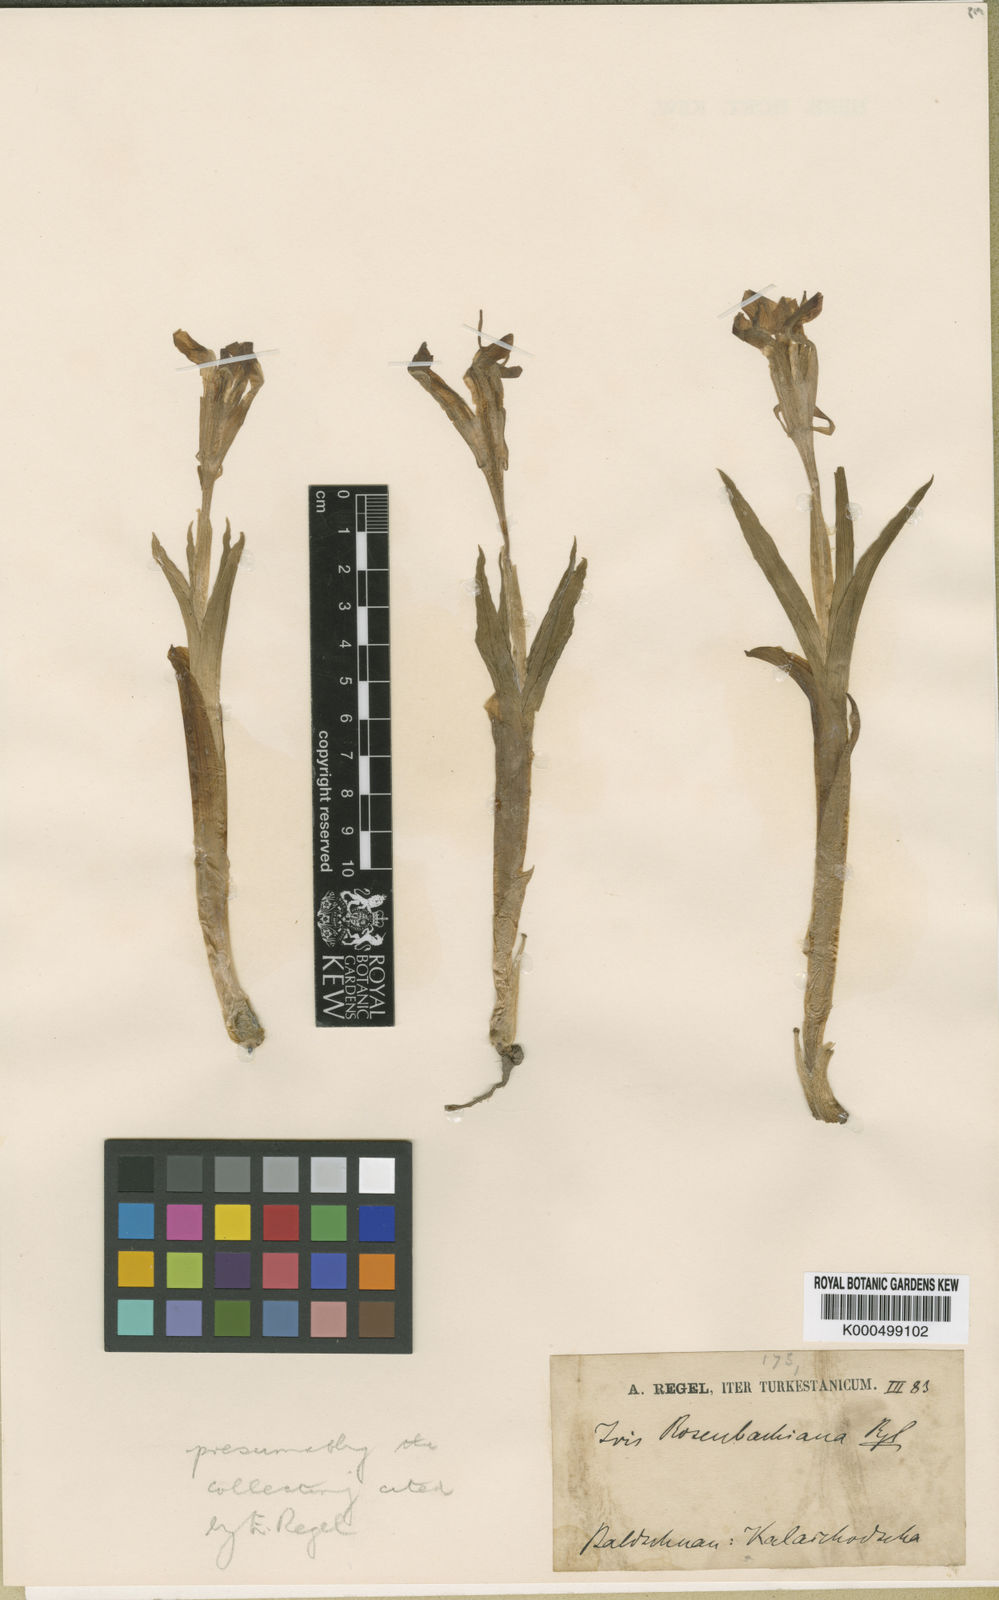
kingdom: Plantae
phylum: Tracheophyta
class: Liliopsida
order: Asparagales
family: Iridaceae
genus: Iris
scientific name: Iris rosenbachiana
